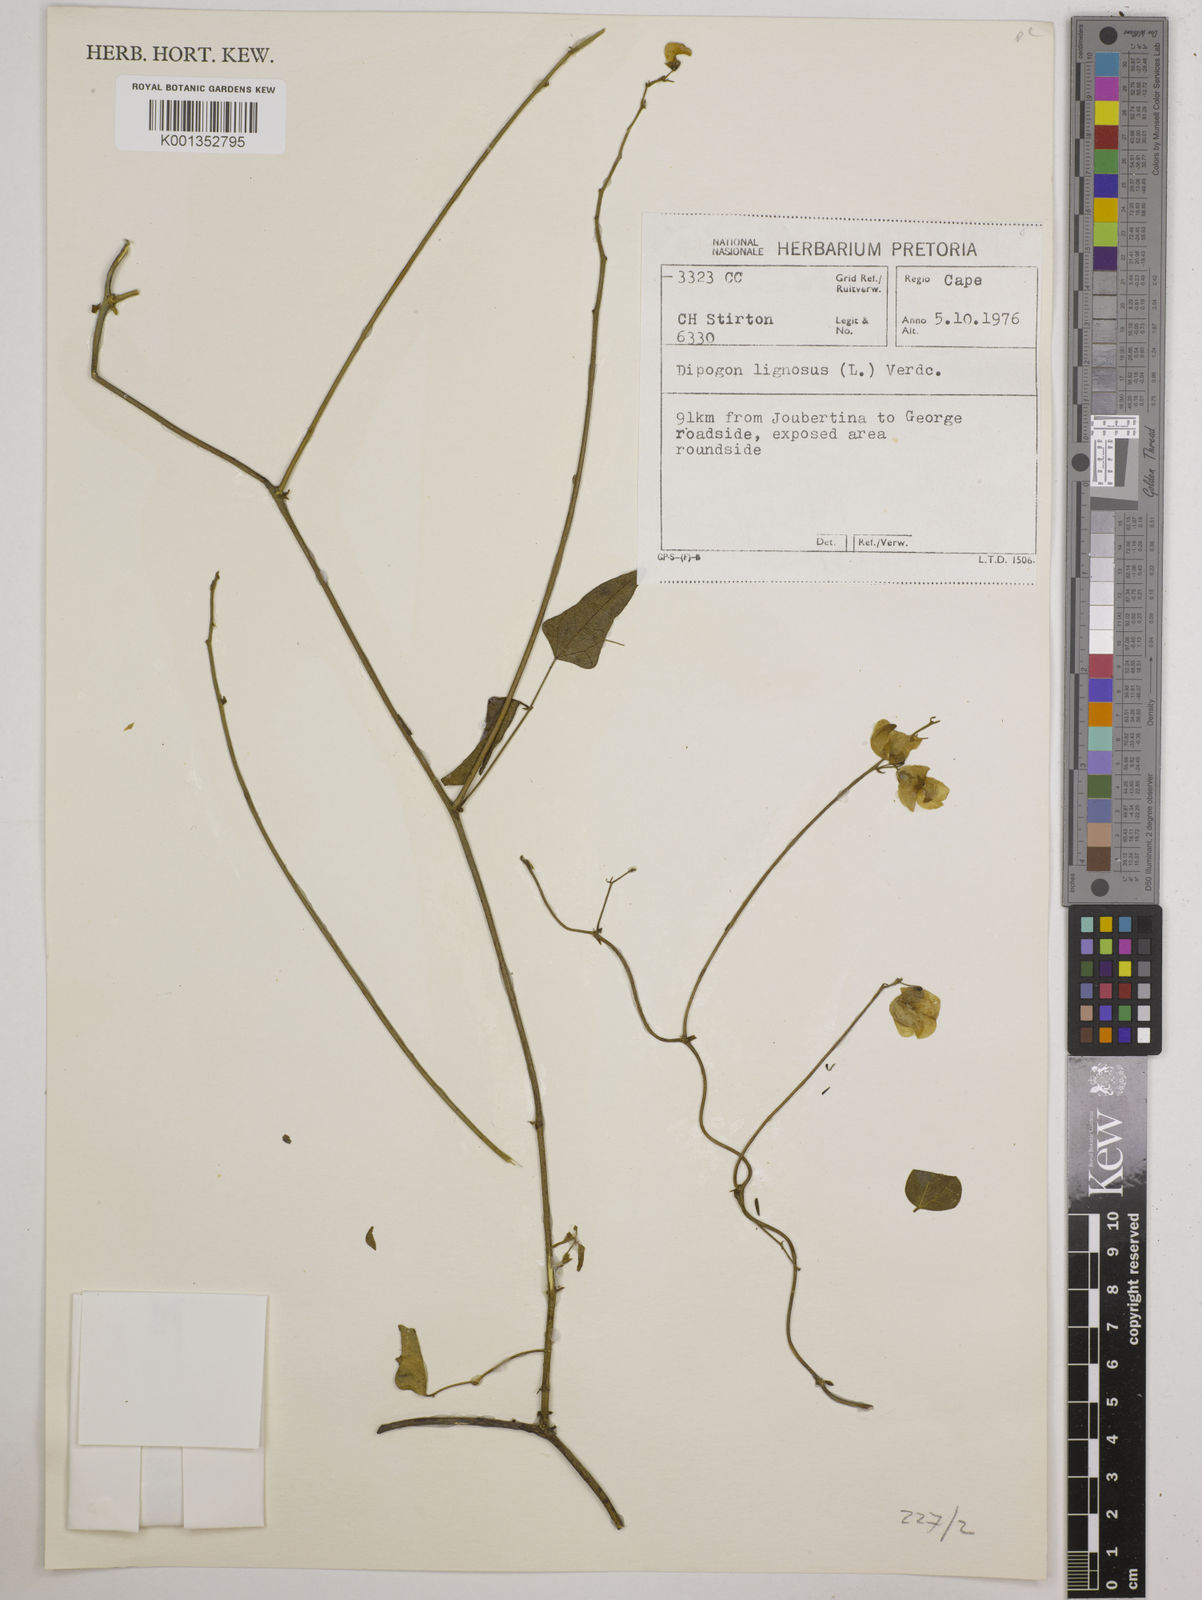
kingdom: Plantae
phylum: Tracheophyta
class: Magnoliopsida
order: Fabales
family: Fabaceae
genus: Dipogon
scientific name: Dipogon lignosus
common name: Okie bean
